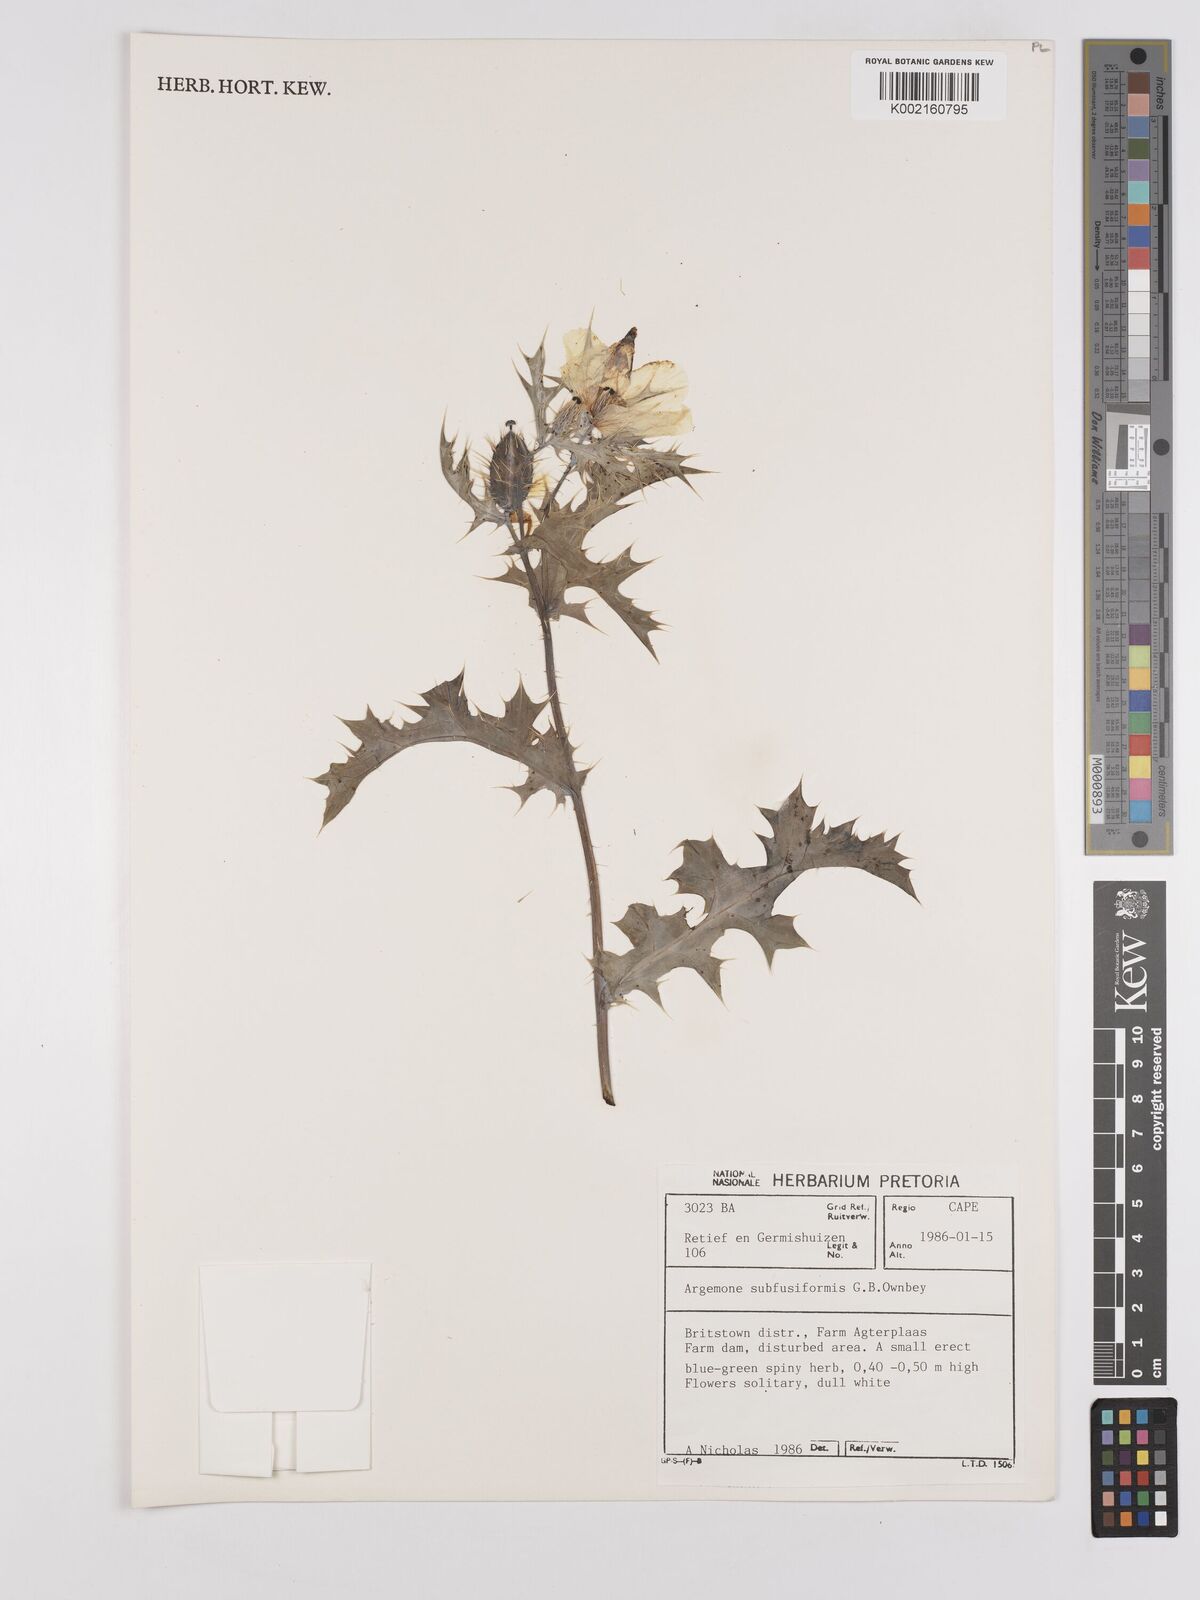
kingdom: Plantae
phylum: Tracheophyta
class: Magnoliopsida
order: Ranunculales
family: Papaveraceae
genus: Argemone
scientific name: Argemone subfusiformis
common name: American-poppy
